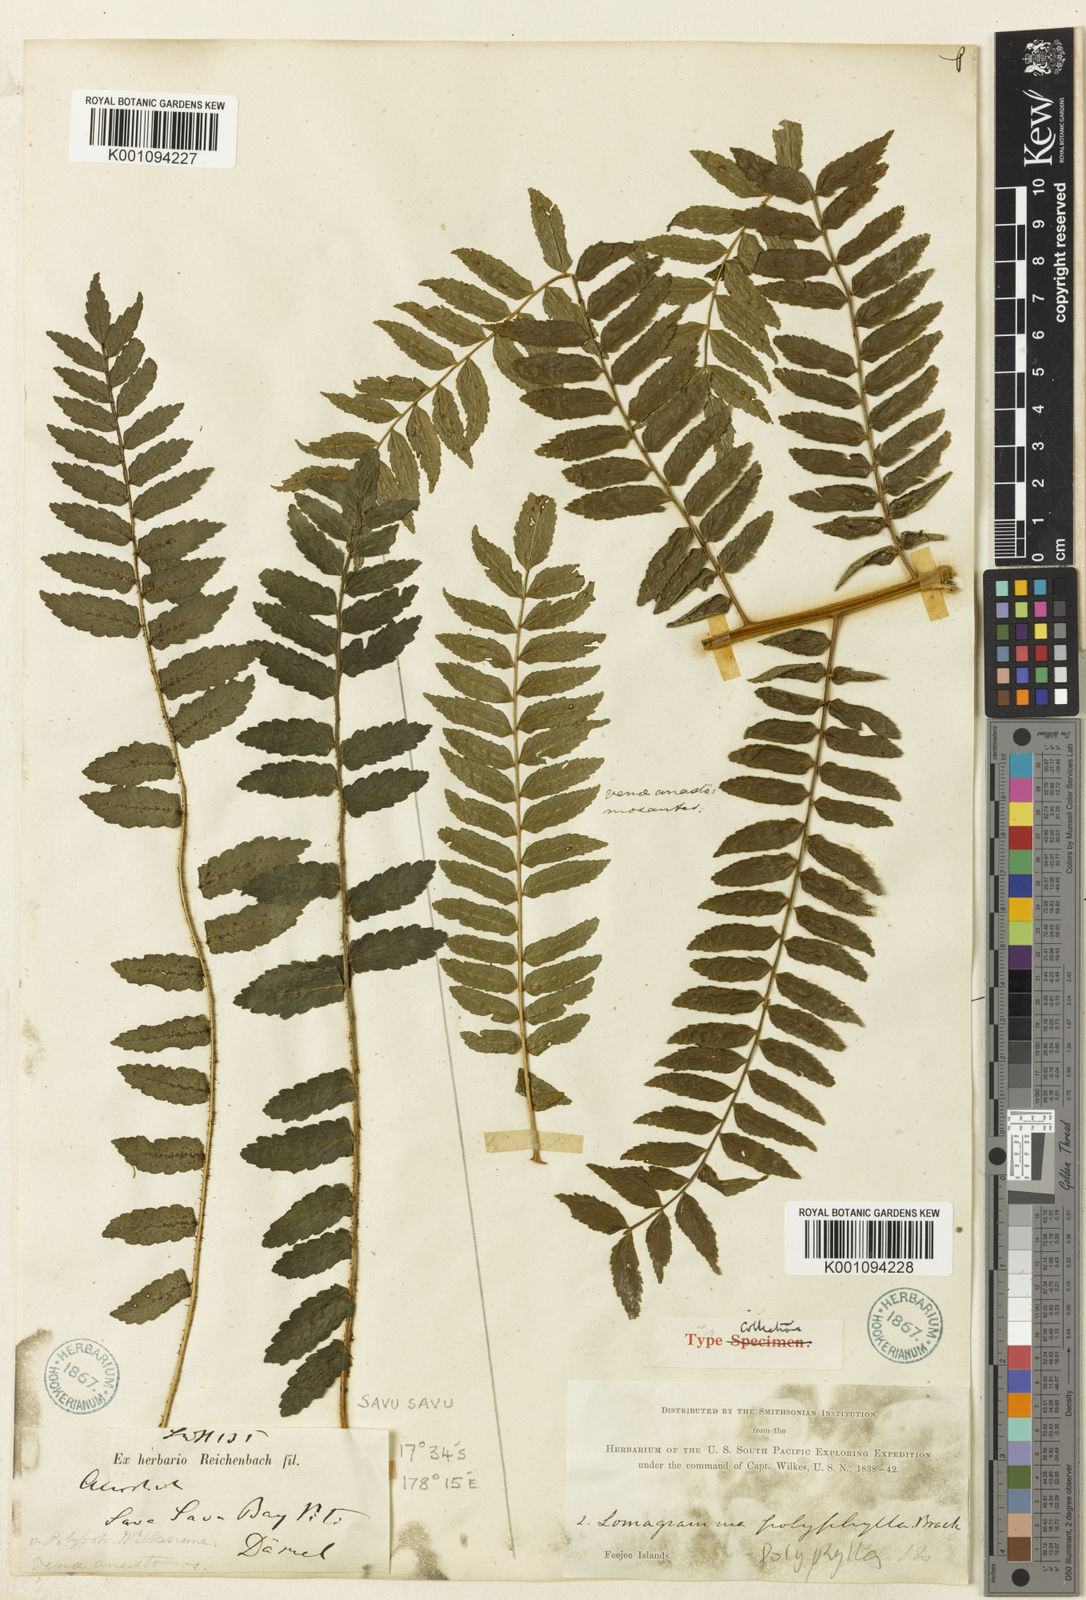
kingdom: Plantae
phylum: Tracheophyta
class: Polypodiopsida
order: Polypodiales
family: Dryopteridaceae
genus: Lomagramma
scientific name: Lomagramma polyphylla
